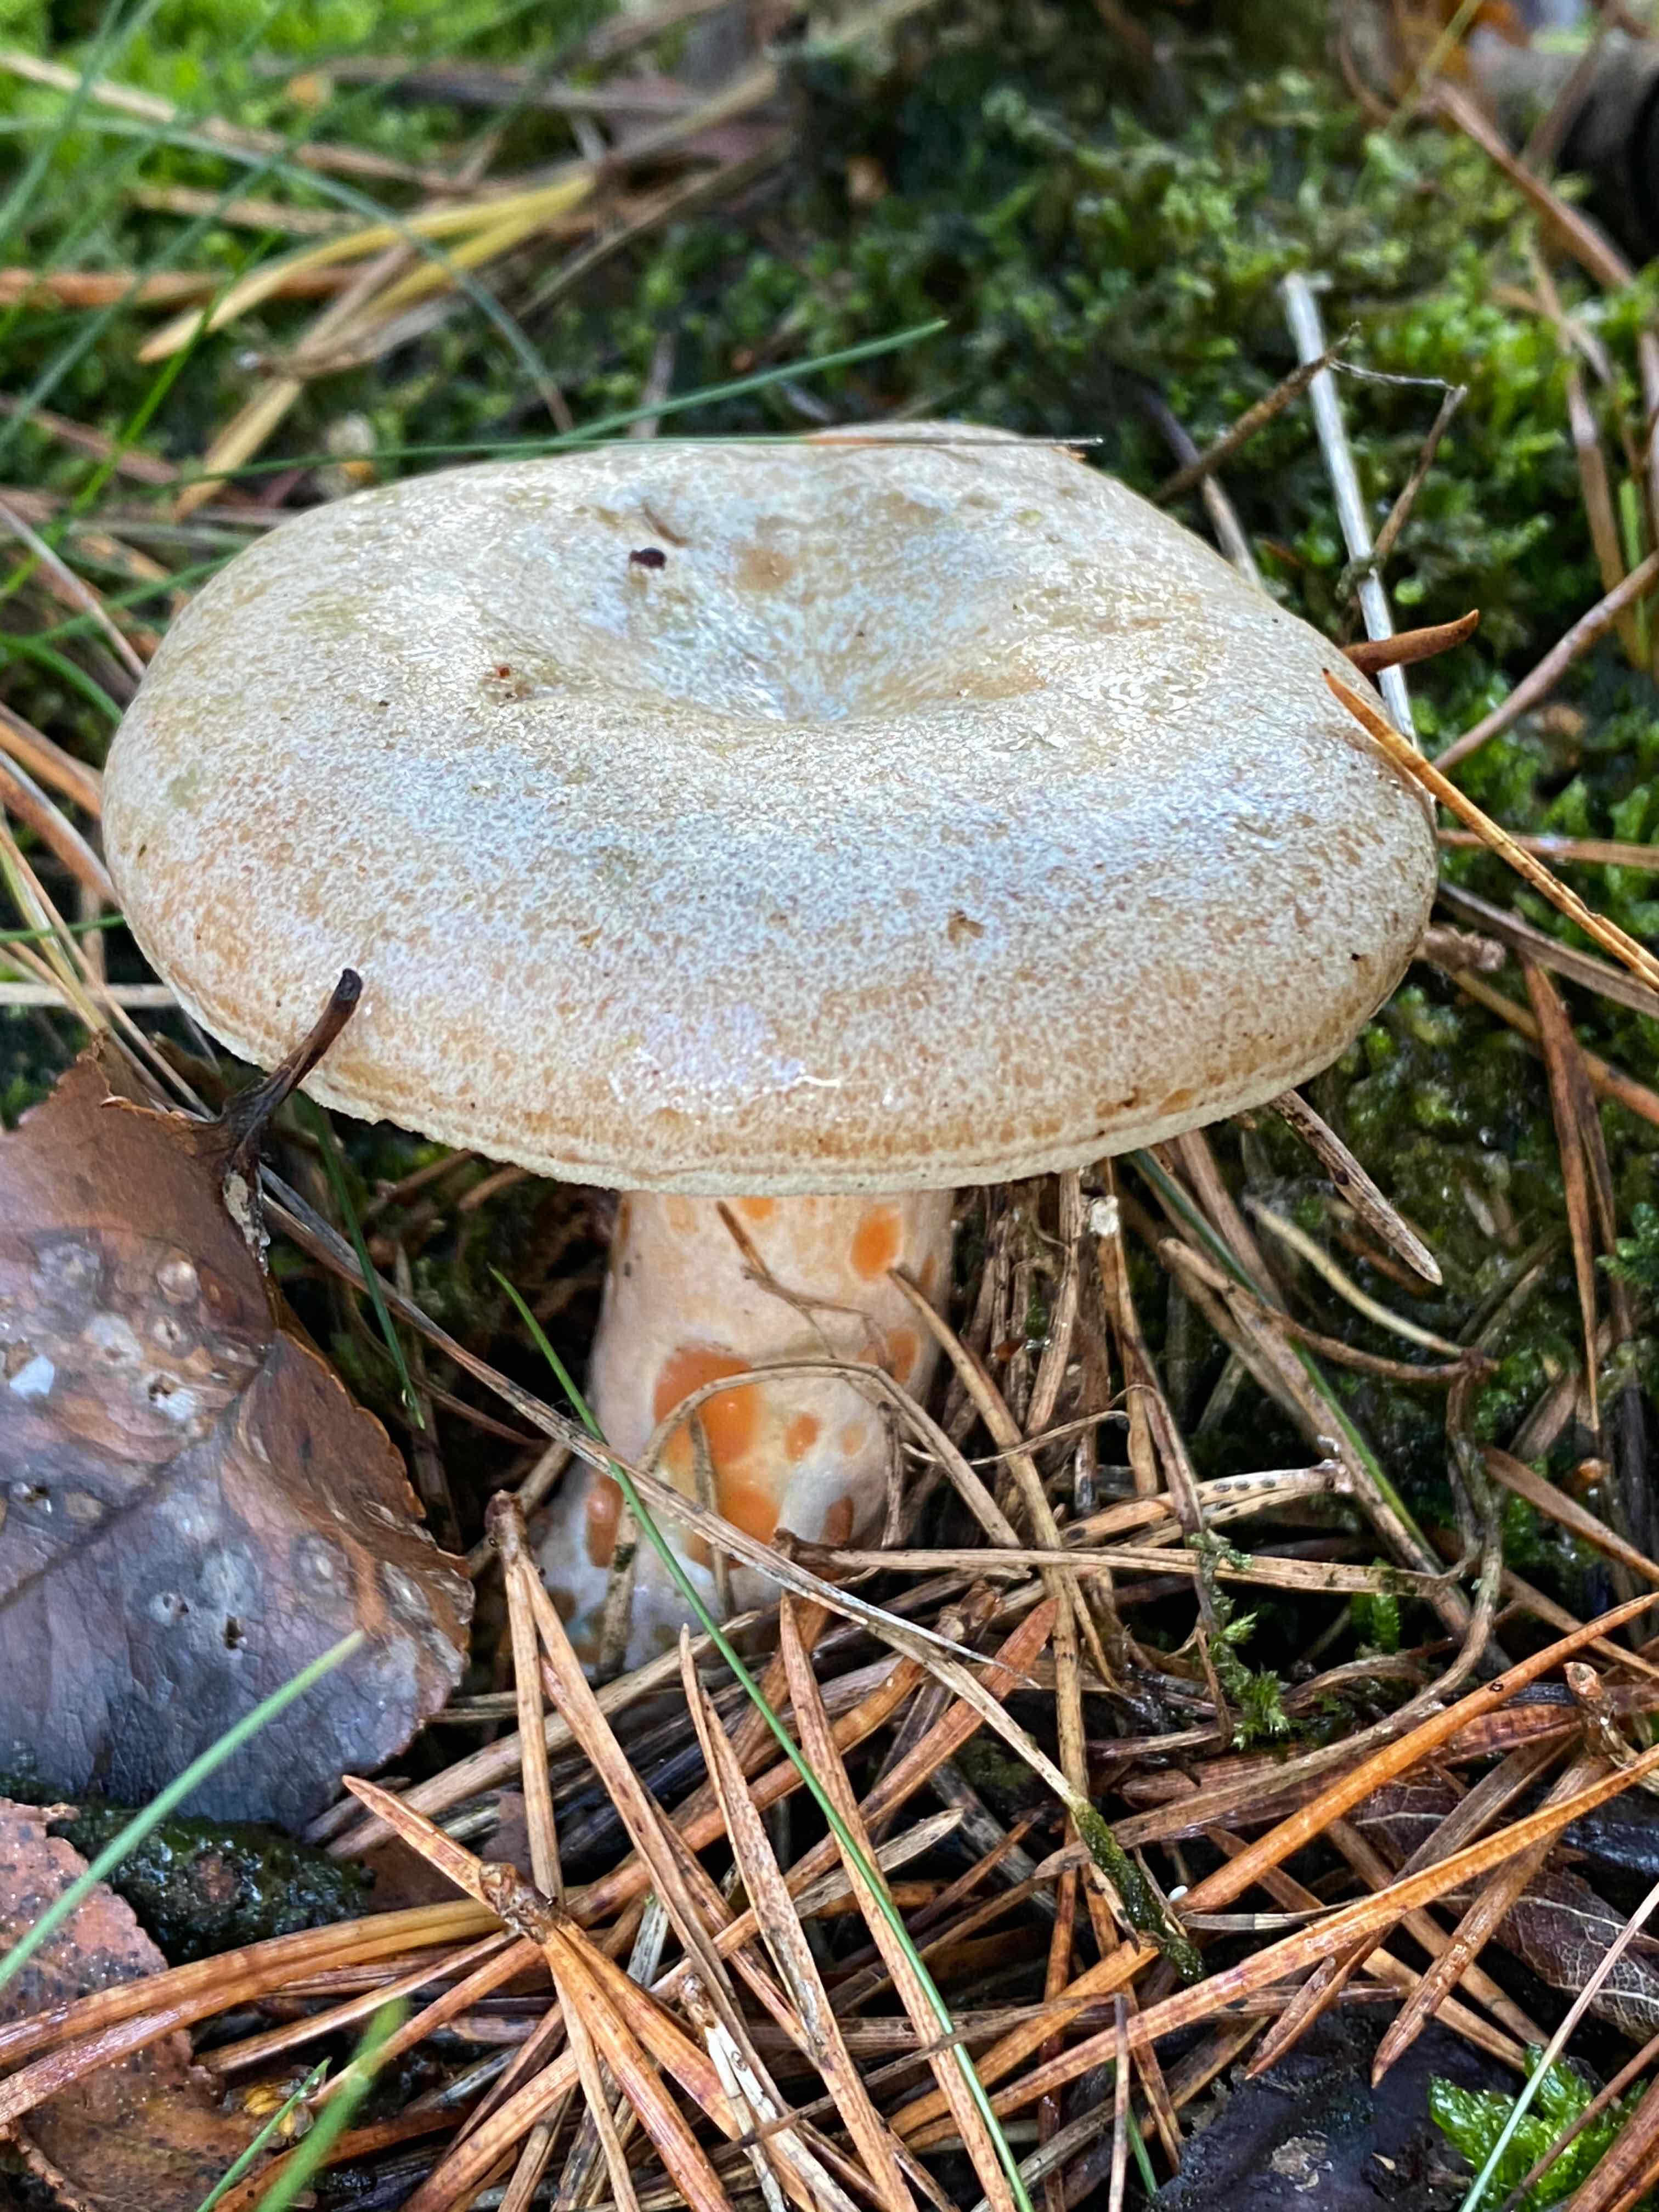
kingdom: Fungi
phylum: Basidiomycota
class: Agaricomycetes
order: Russulales
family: Russulaceae
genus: Lactarius
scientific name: Lactarius quieticolor
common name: tvefarvet mælkehat
